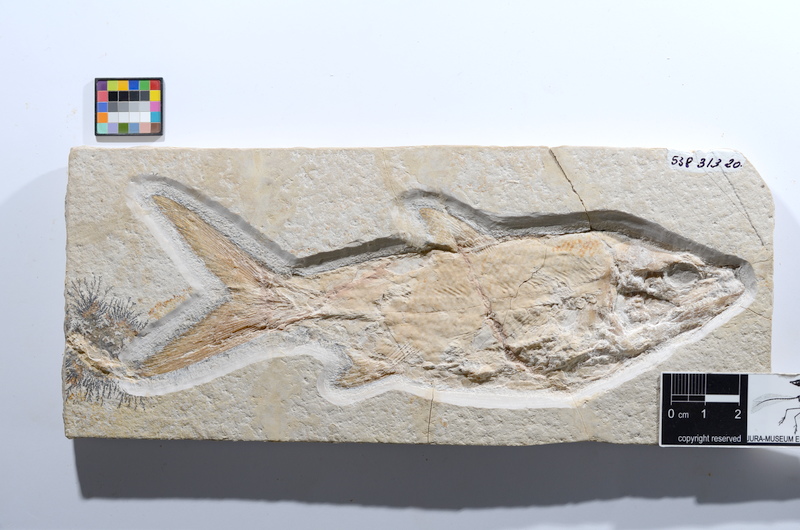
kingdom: Animalia
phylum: Chordata
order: Amiiformes
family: Caturidae
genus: Caturus
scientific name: Caturus furcatus
